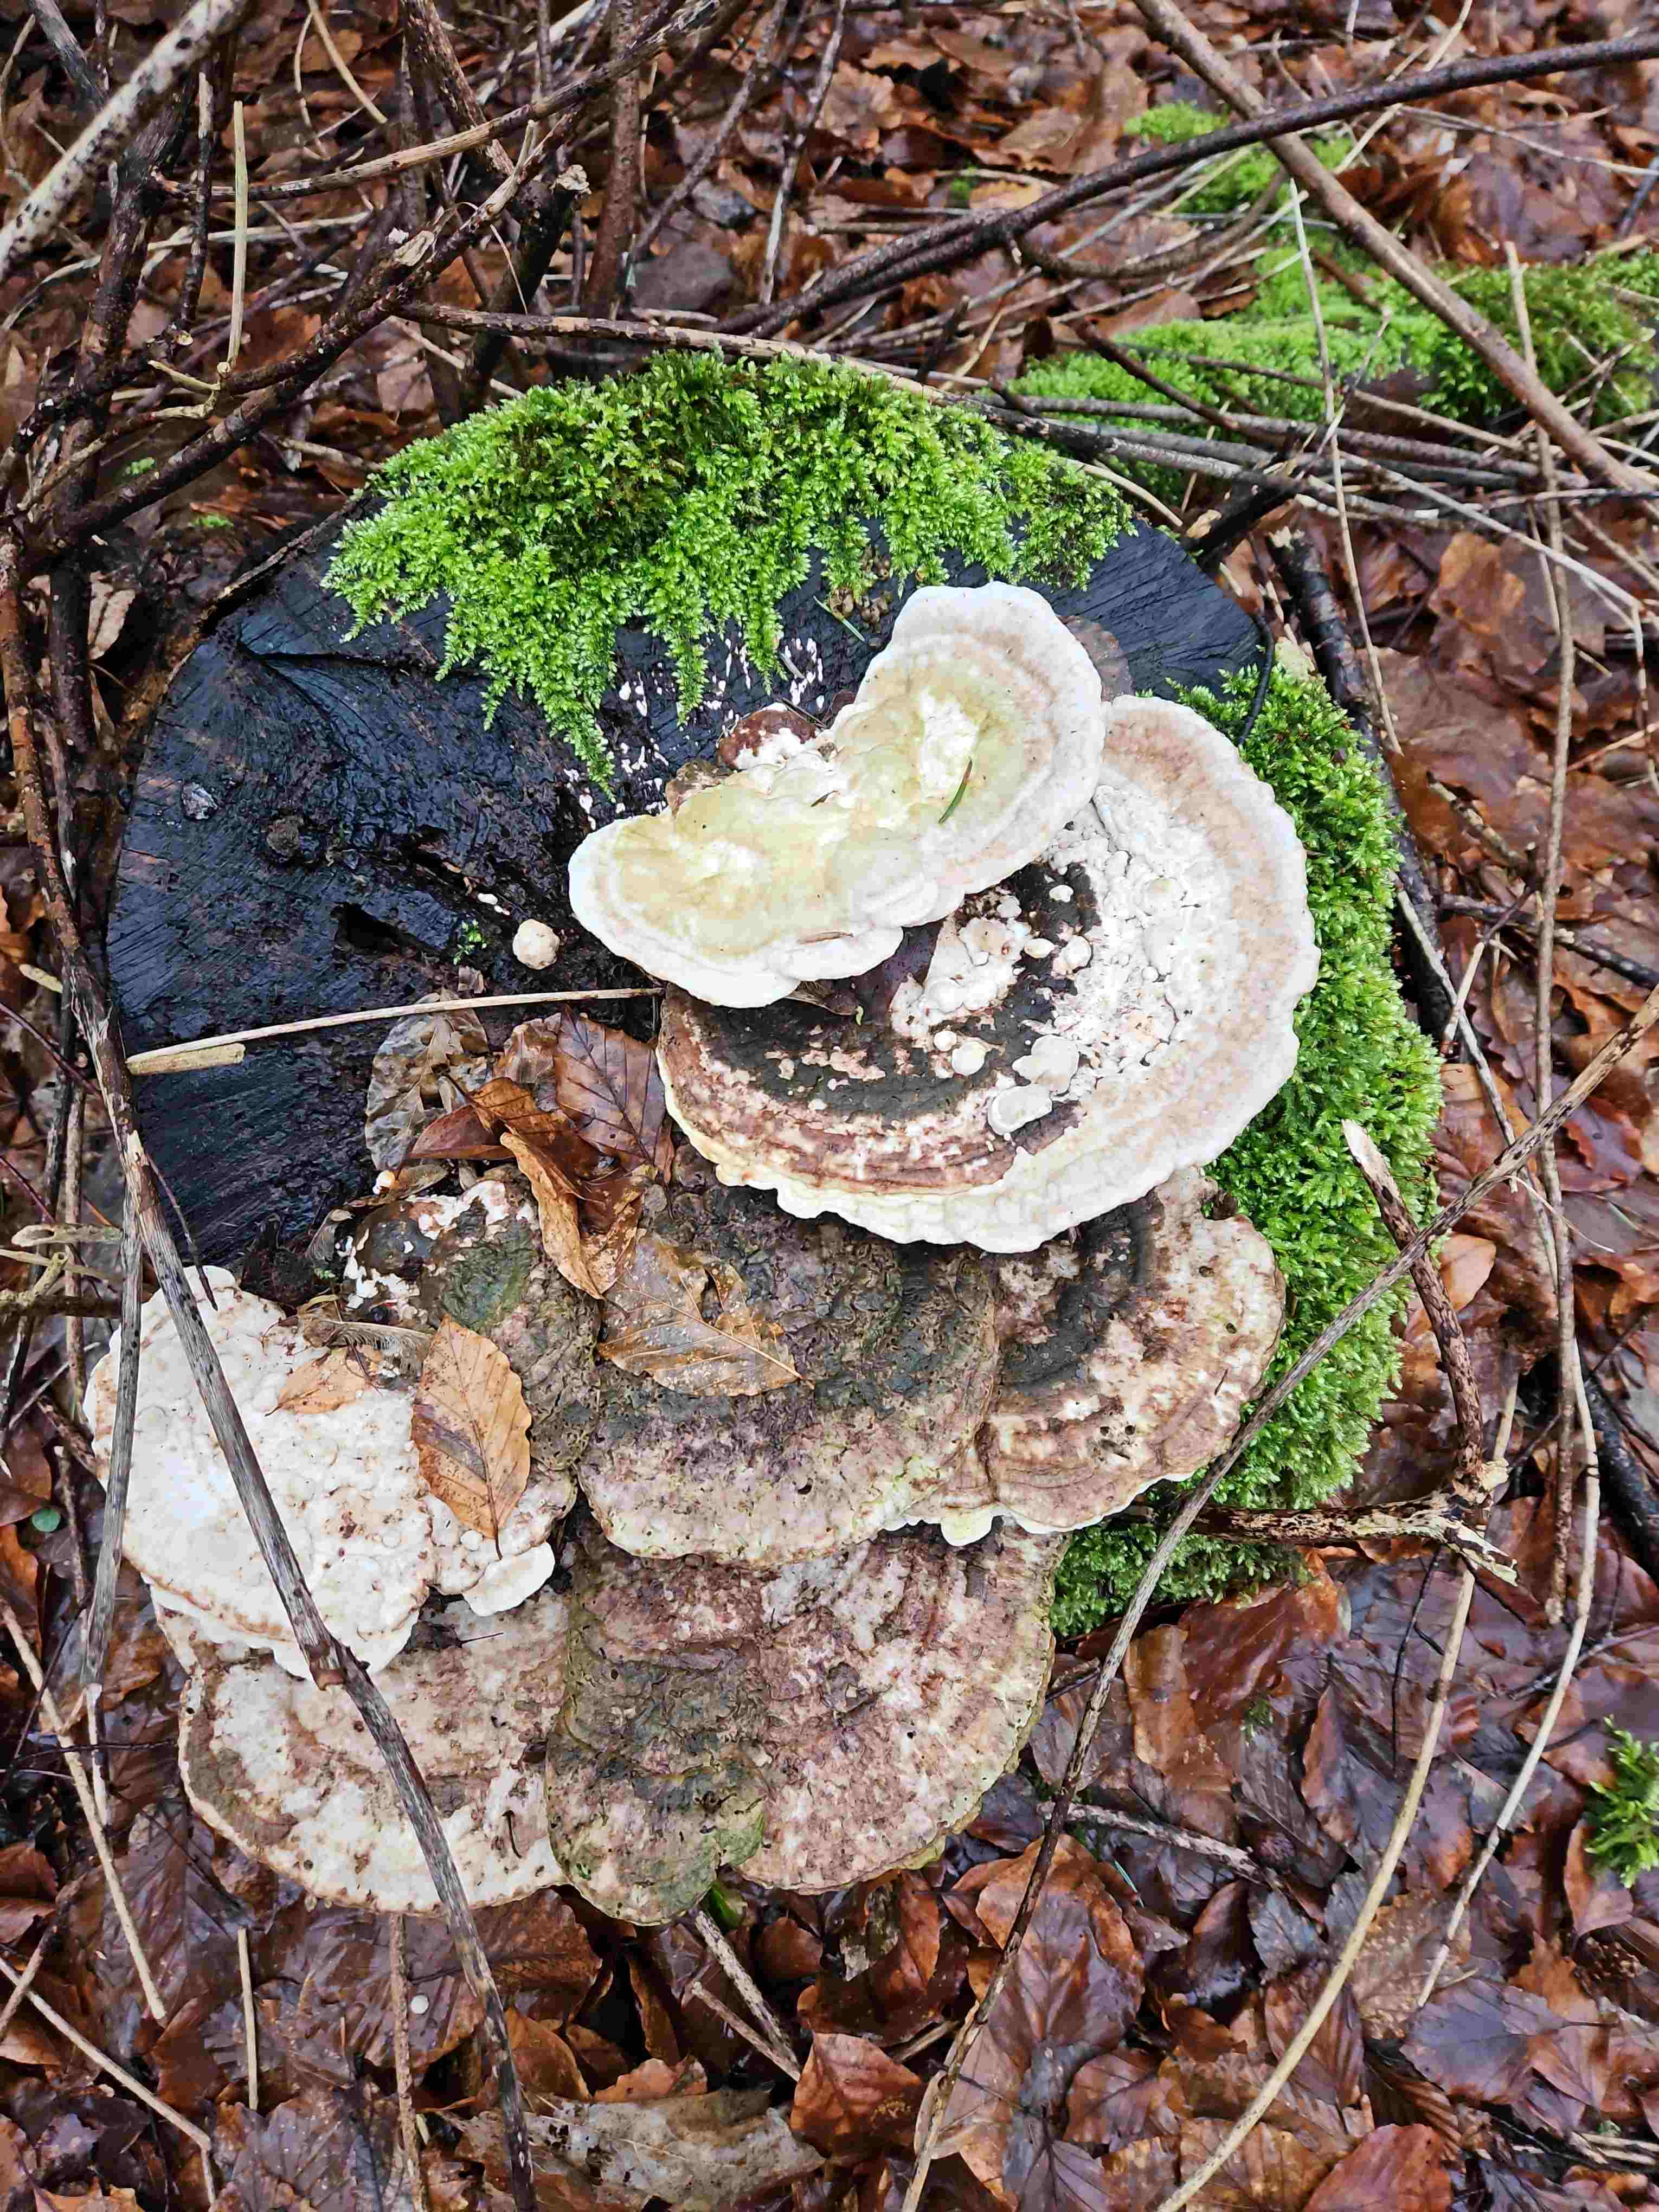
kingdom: Fungi
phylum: Basidiomycota
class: Agaricomycetes
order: Polyporales
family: Polyporaceae
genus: Trametes
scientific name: Trametes gibbosa
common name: puklet læderporesvamp
